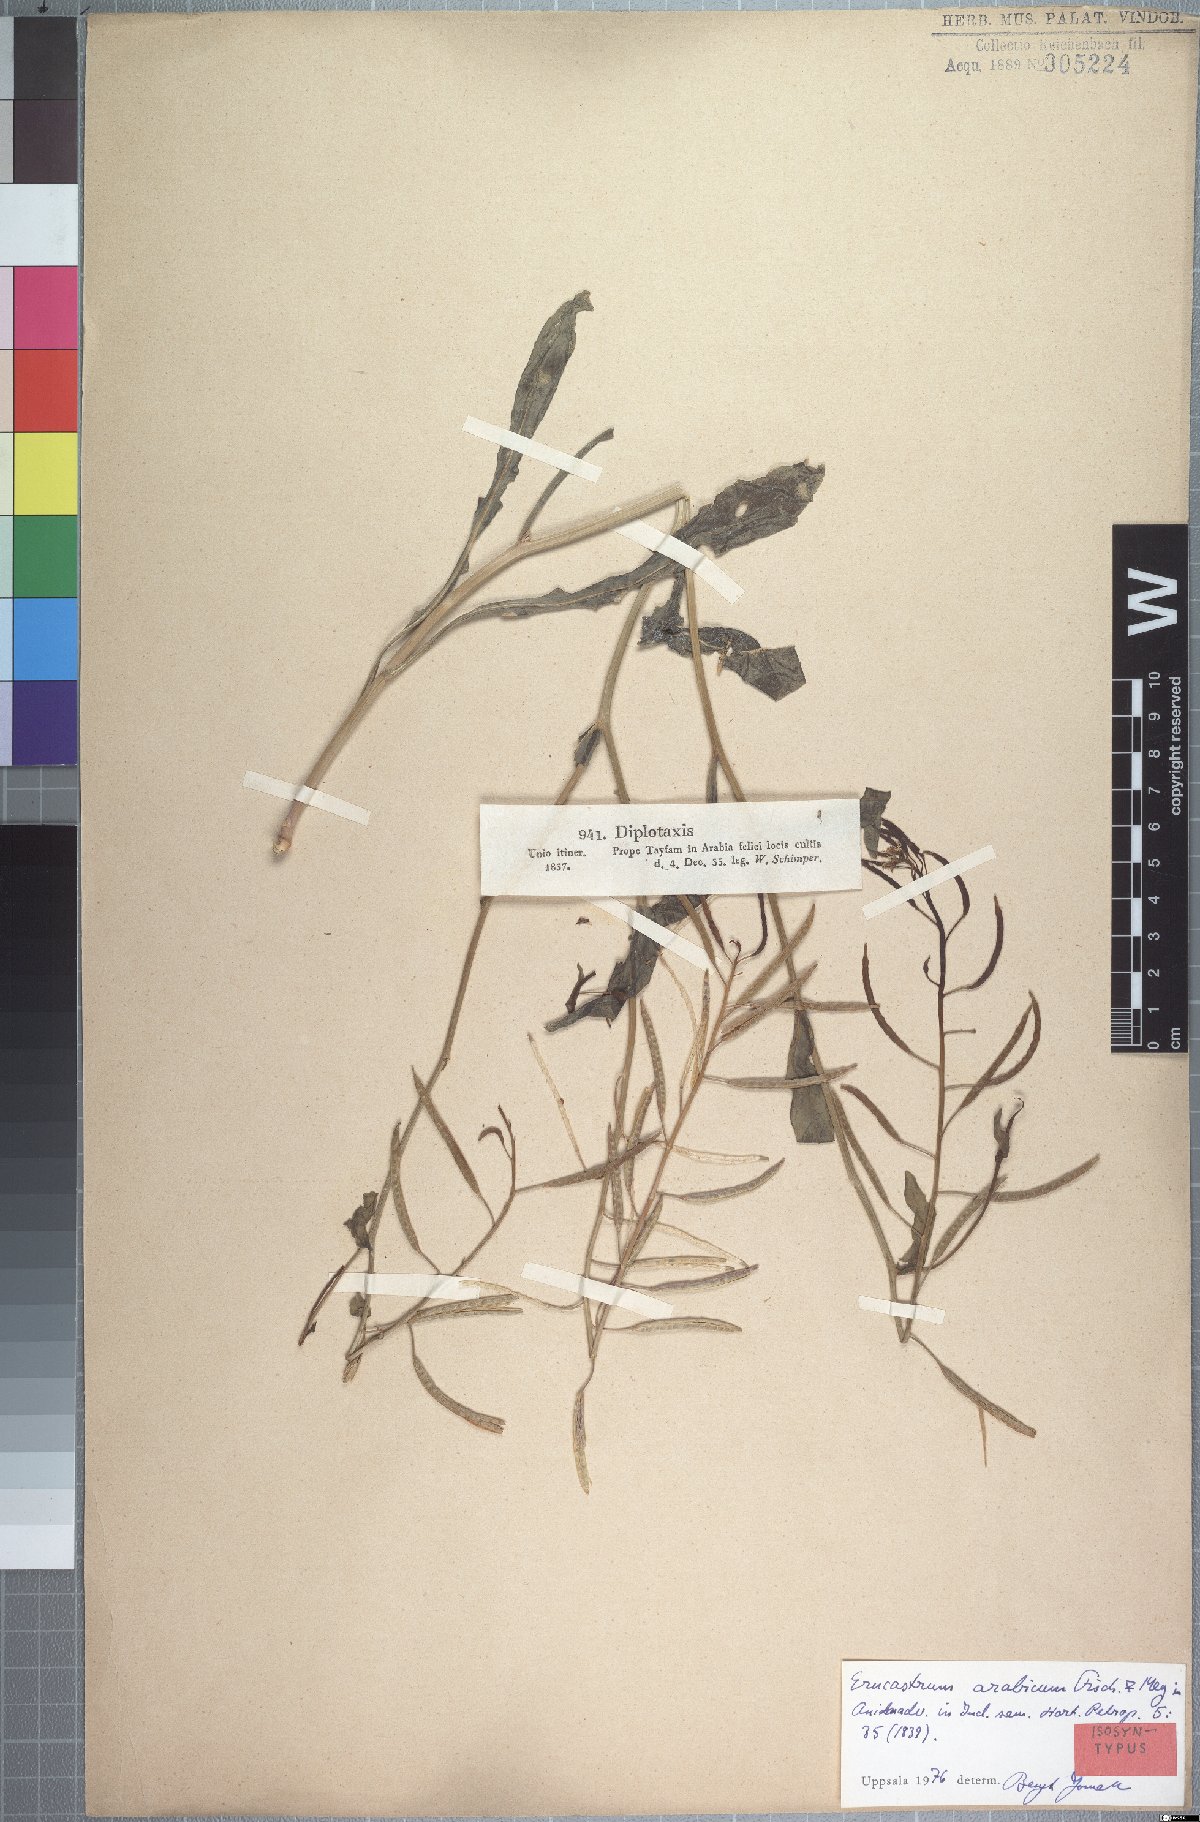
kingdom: Plantae
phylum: Tracheophyta
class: Magnoliopsida
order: Brassicales
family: Brassicaceae
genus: Erucastrum
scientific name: Erucastrum arabicum
